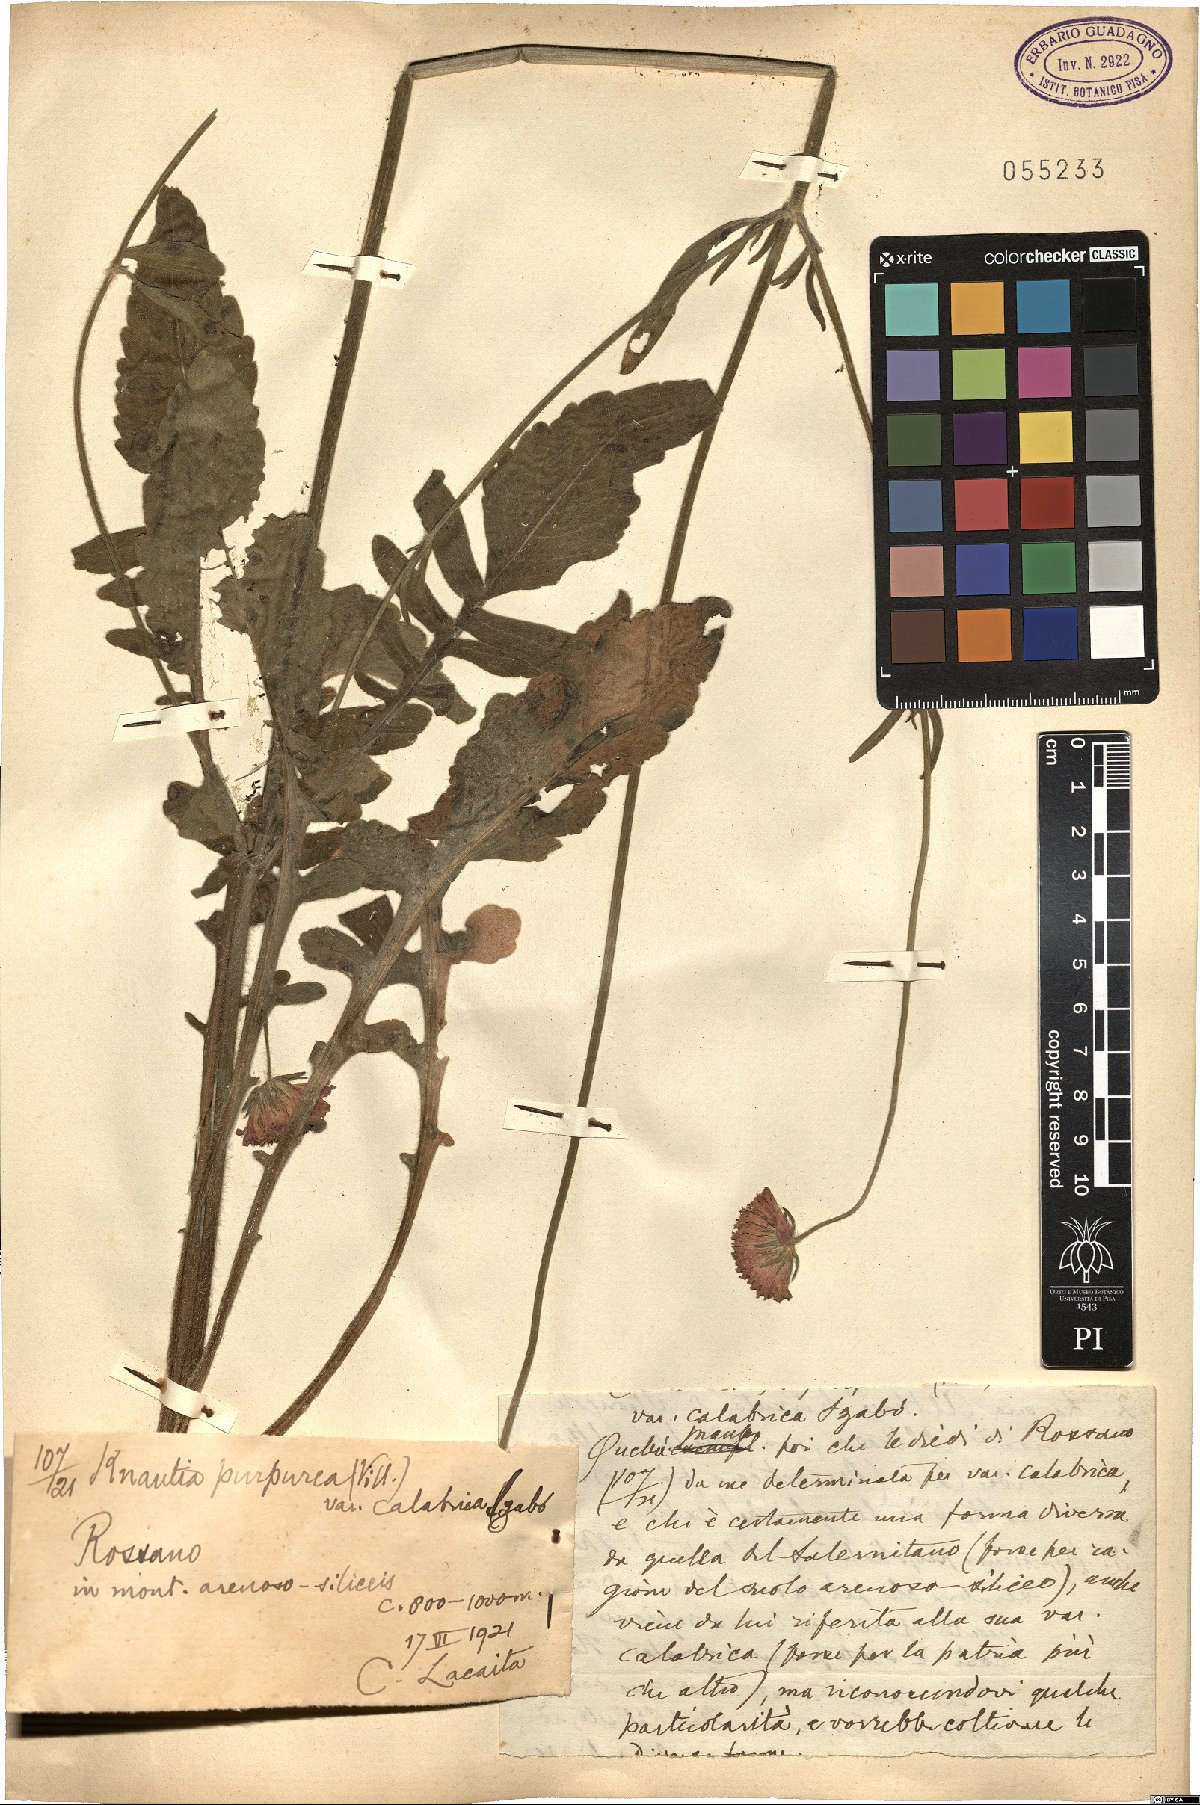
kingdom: Plantae
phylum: Tracheophyta
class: Magnoliopsida
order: Dipsacales
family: Caprifoliaceae
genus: Knautia
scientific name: Knautia collina
